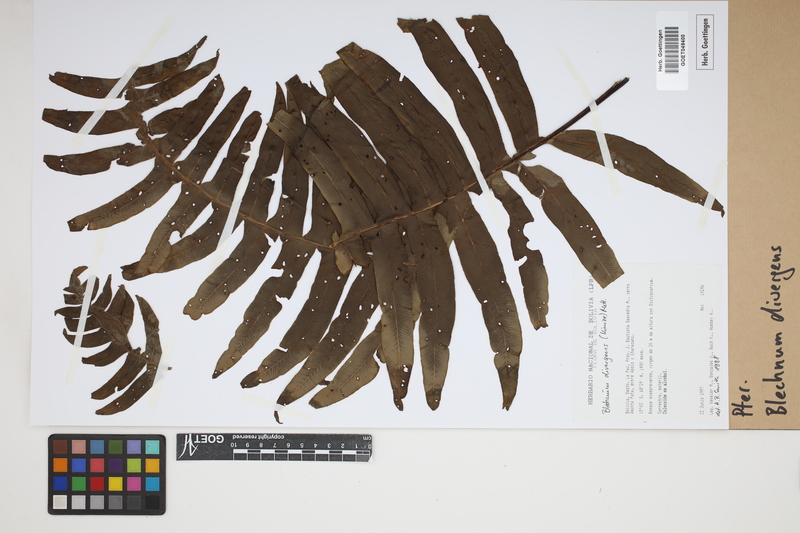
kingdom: Plantae
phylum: Tracheophyta
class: Polypodiopsida
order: Polypodiales
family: Blechnaceae
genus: Austroblechnum
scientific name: Austroblechnum divergens
